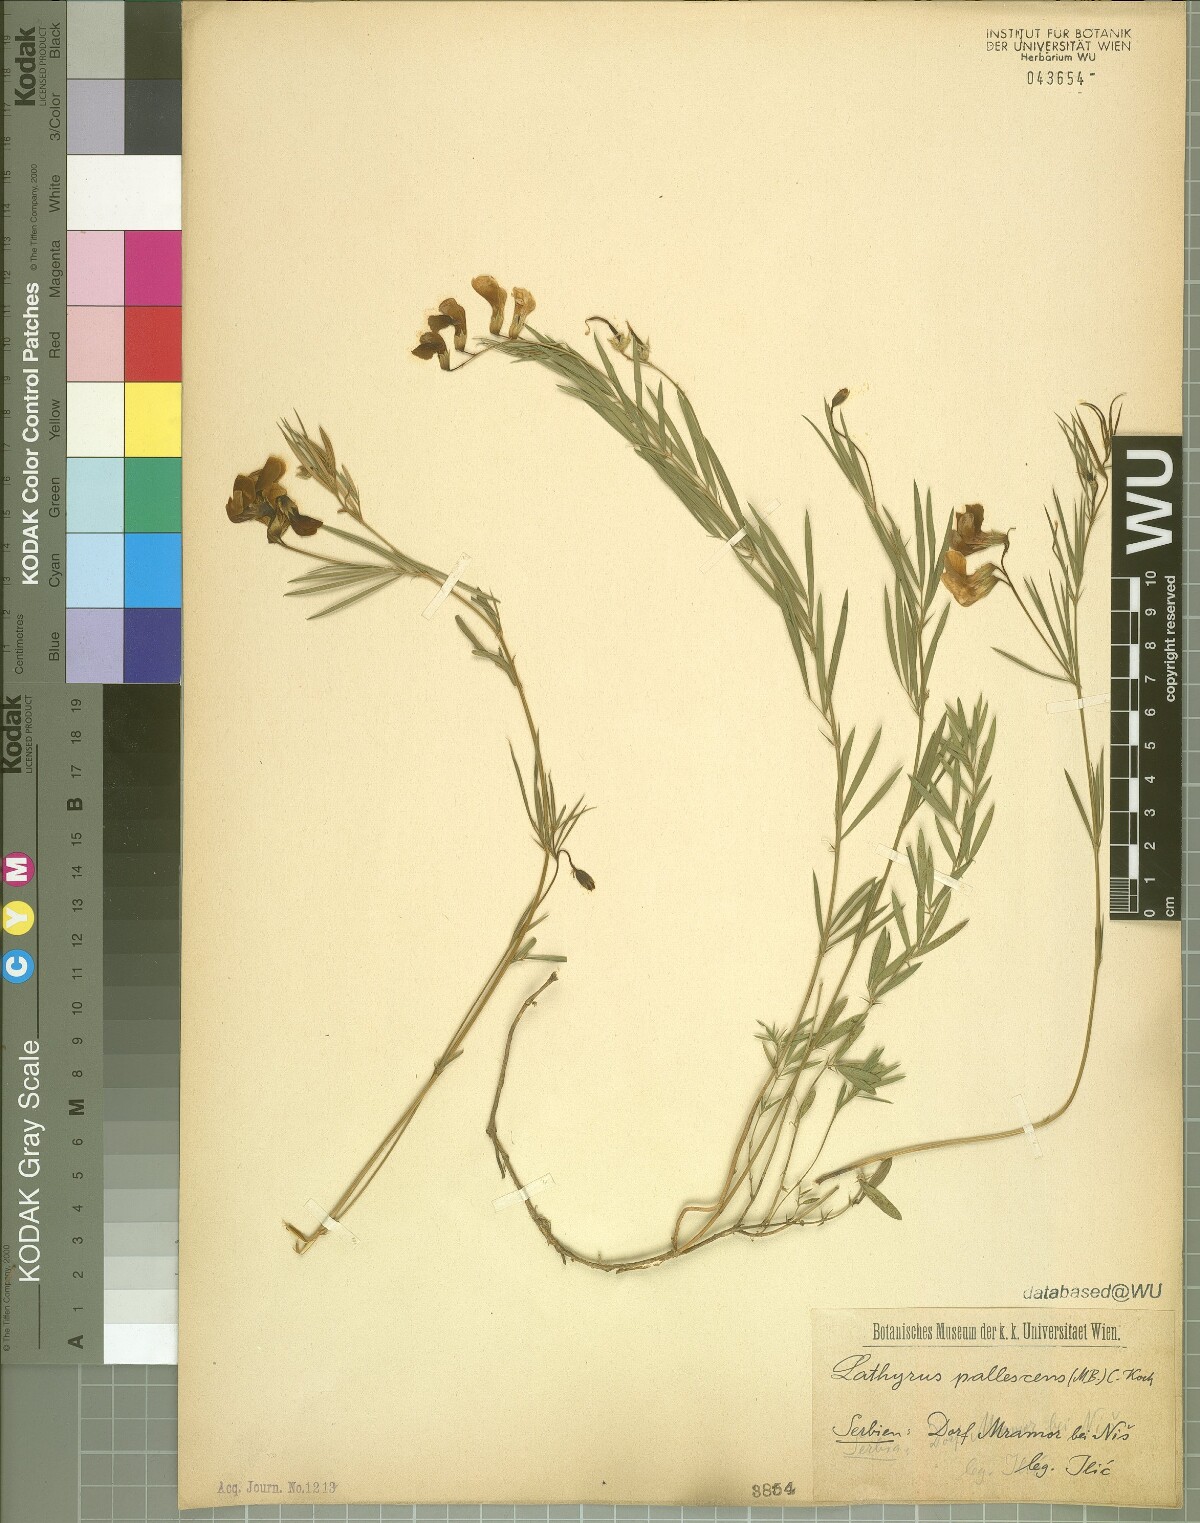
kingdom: Plantae
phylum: Tracheophyta
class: Magnoliopsida
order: Fabales
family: Fabaceae
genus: Lathyrus
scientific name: Lathyrus pallescens
